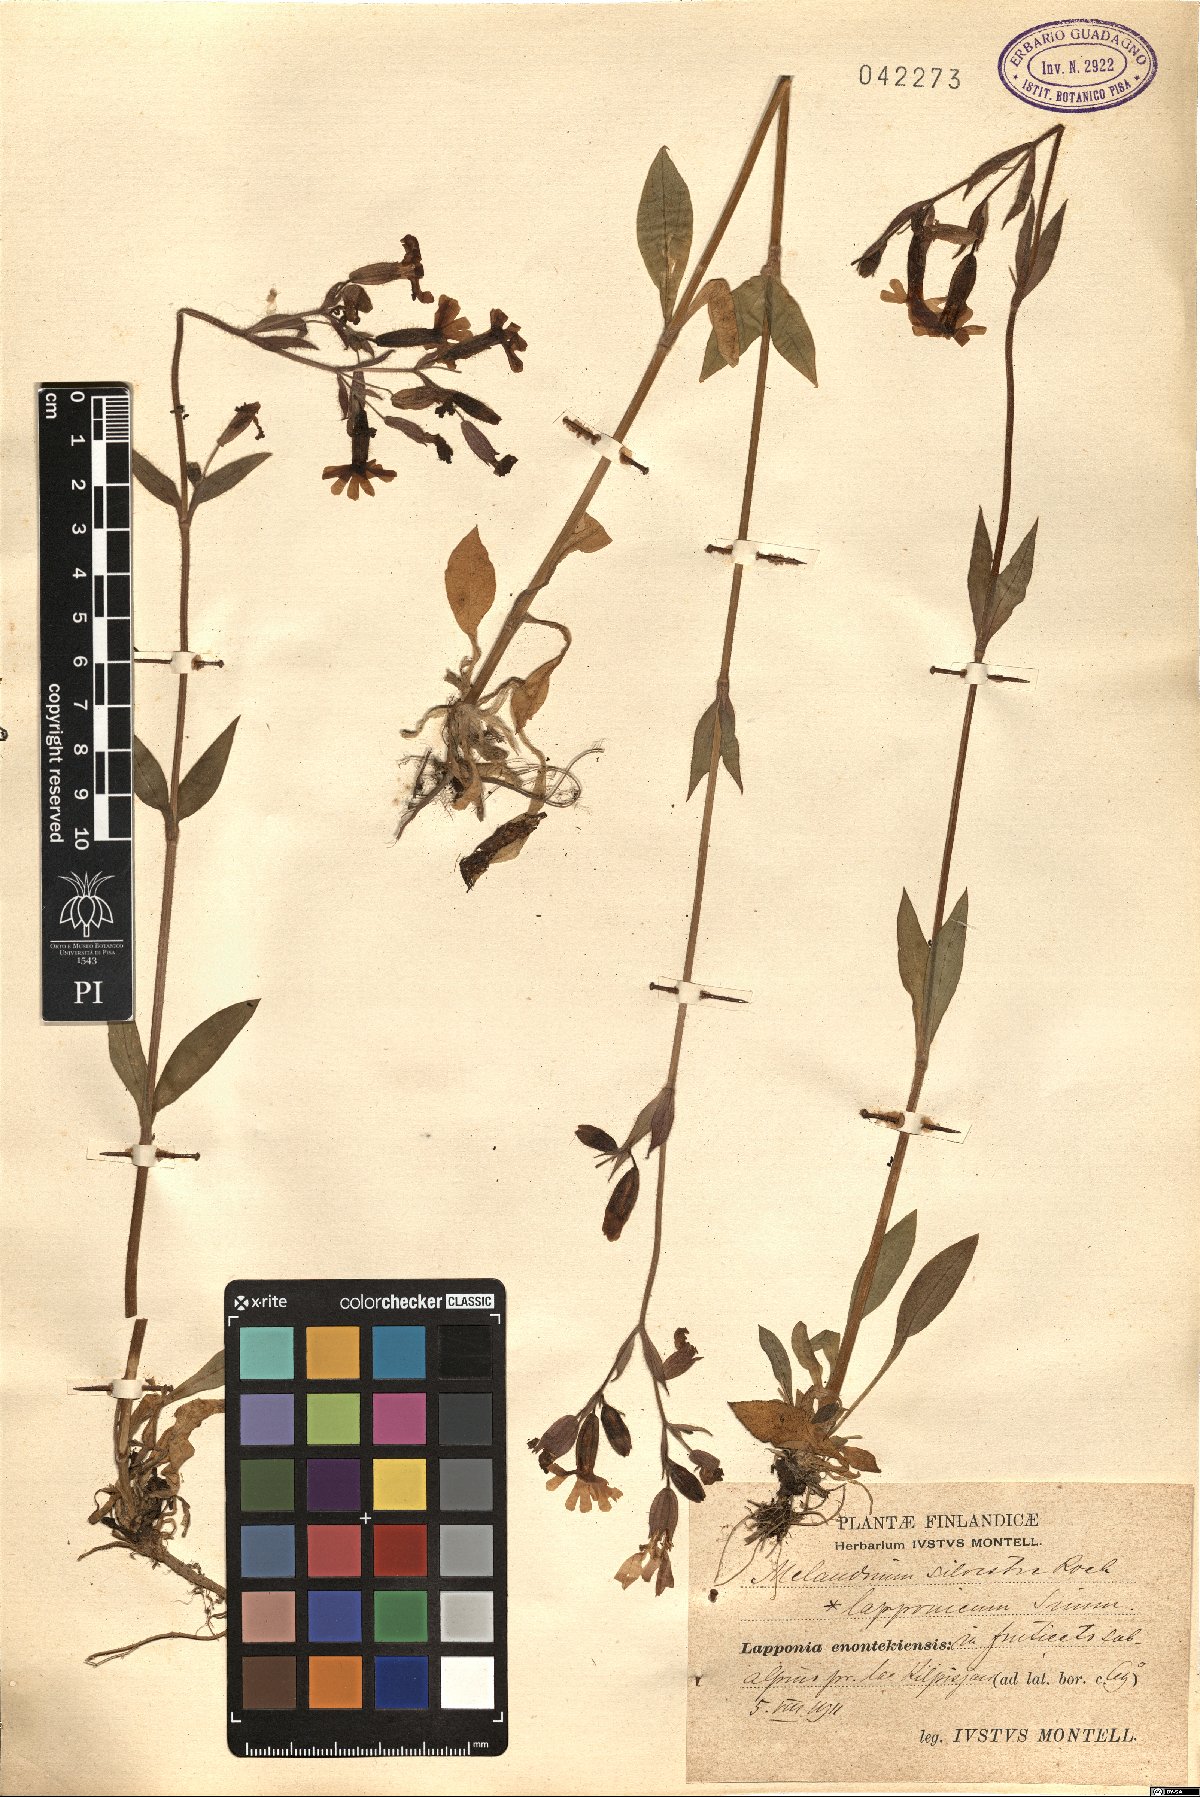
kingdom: Plantae
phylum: Tracheophyta
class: Magnoliopsida
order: Caryophyllales
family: Caryophyllaceae
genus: Silene
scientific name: Silene dioica
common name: Red campion
